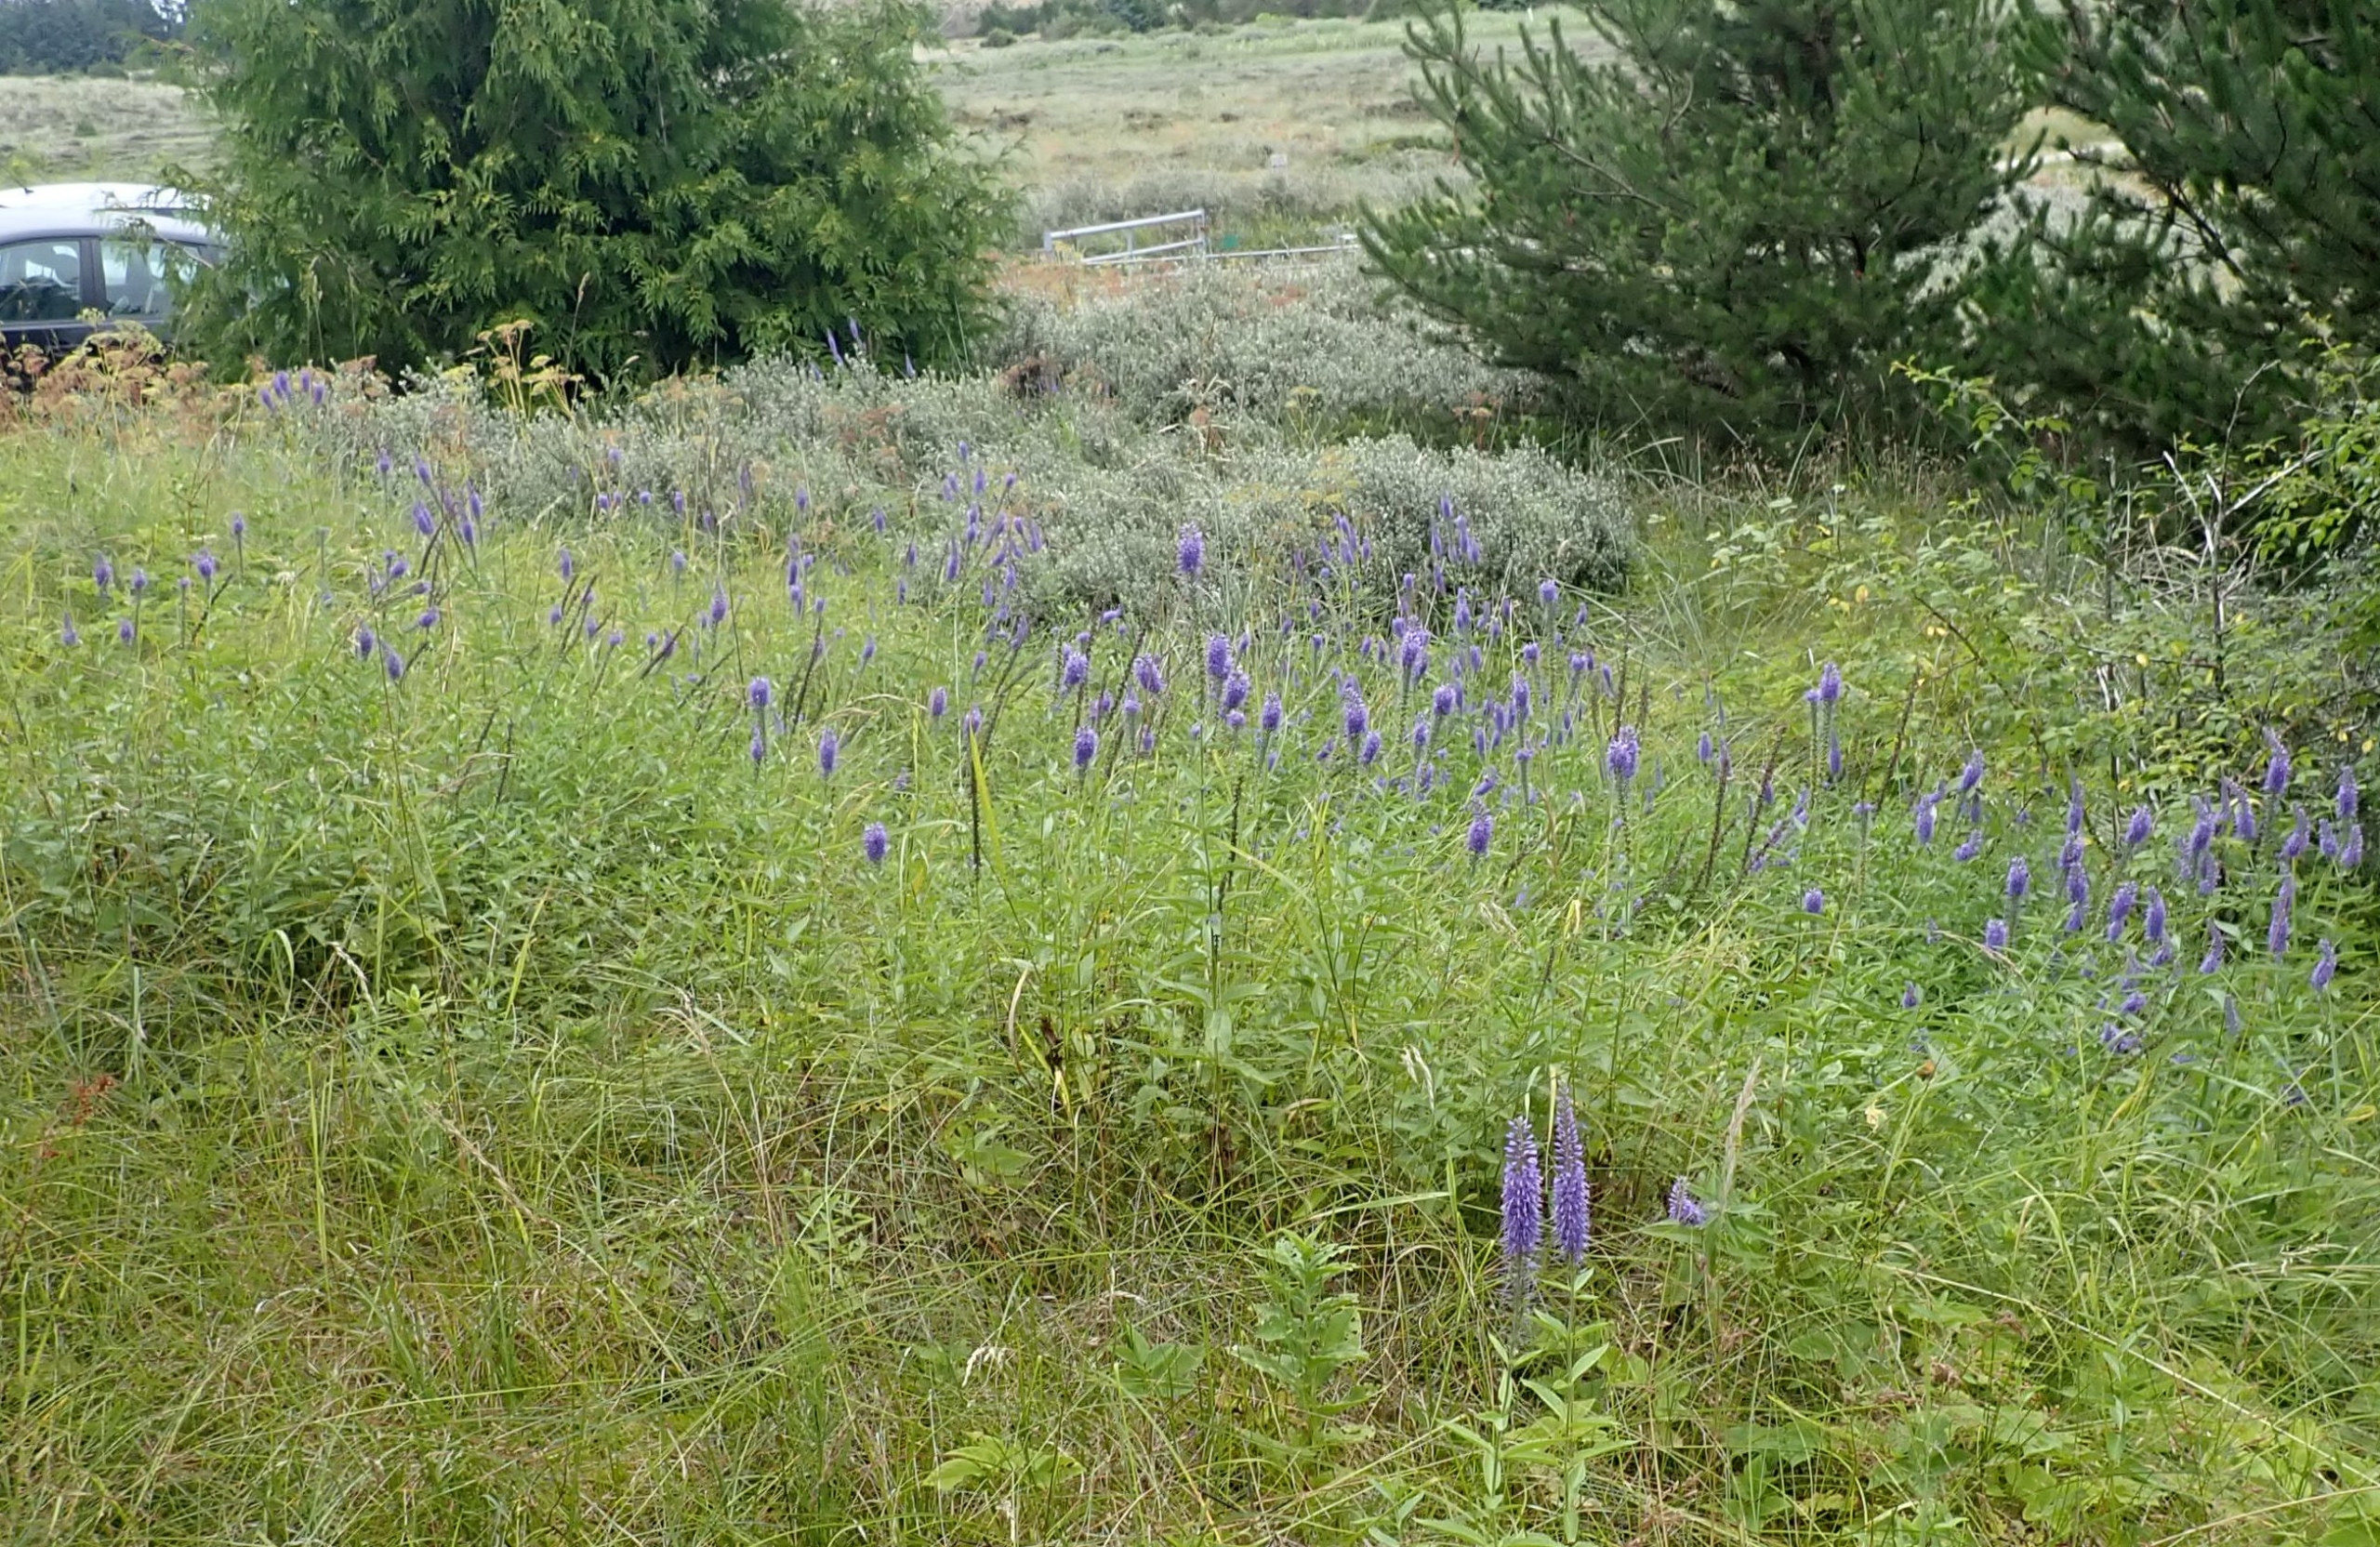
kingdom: Plantae
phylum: Tracheophyta
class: Magnoliopsida
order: Lamiales
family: Plantaginaceae
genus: Veronica
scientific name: Veronica longifolia
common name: Langbladet ærenpris
